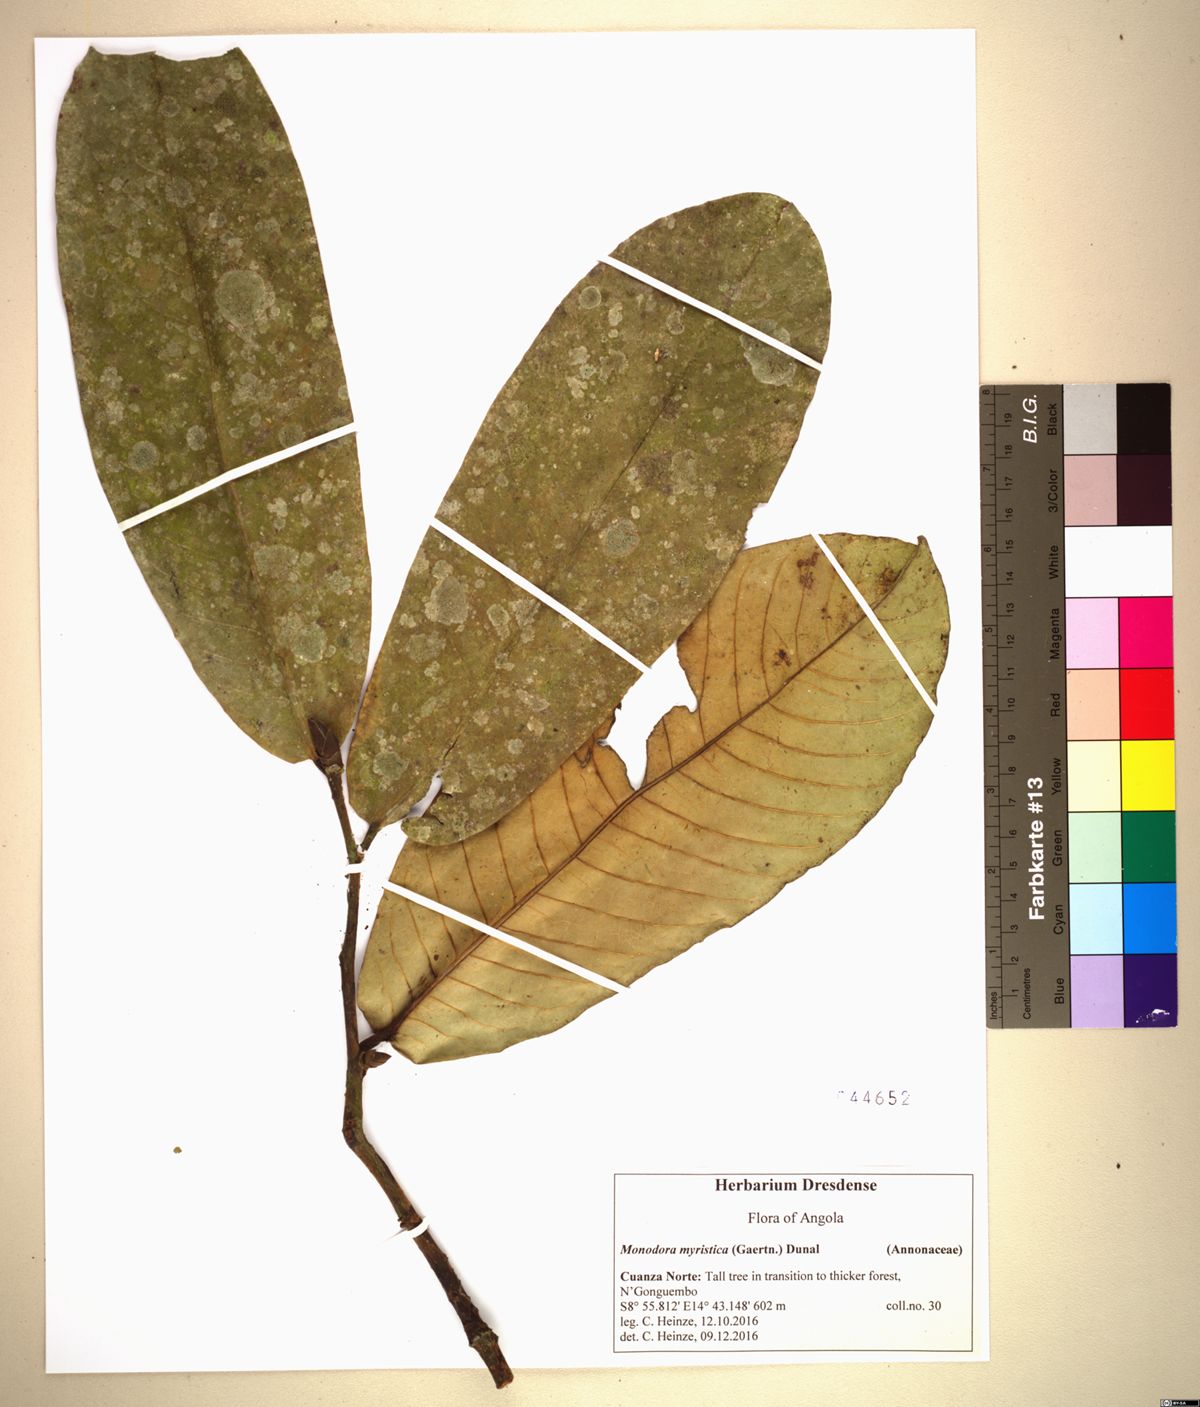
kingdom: Plantae
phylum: Tracheophyta
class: Magnoliopsida
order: Magnoliales
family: Annonaceae
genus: Monodora
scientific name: Monodora myristica
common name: African nutmeg
